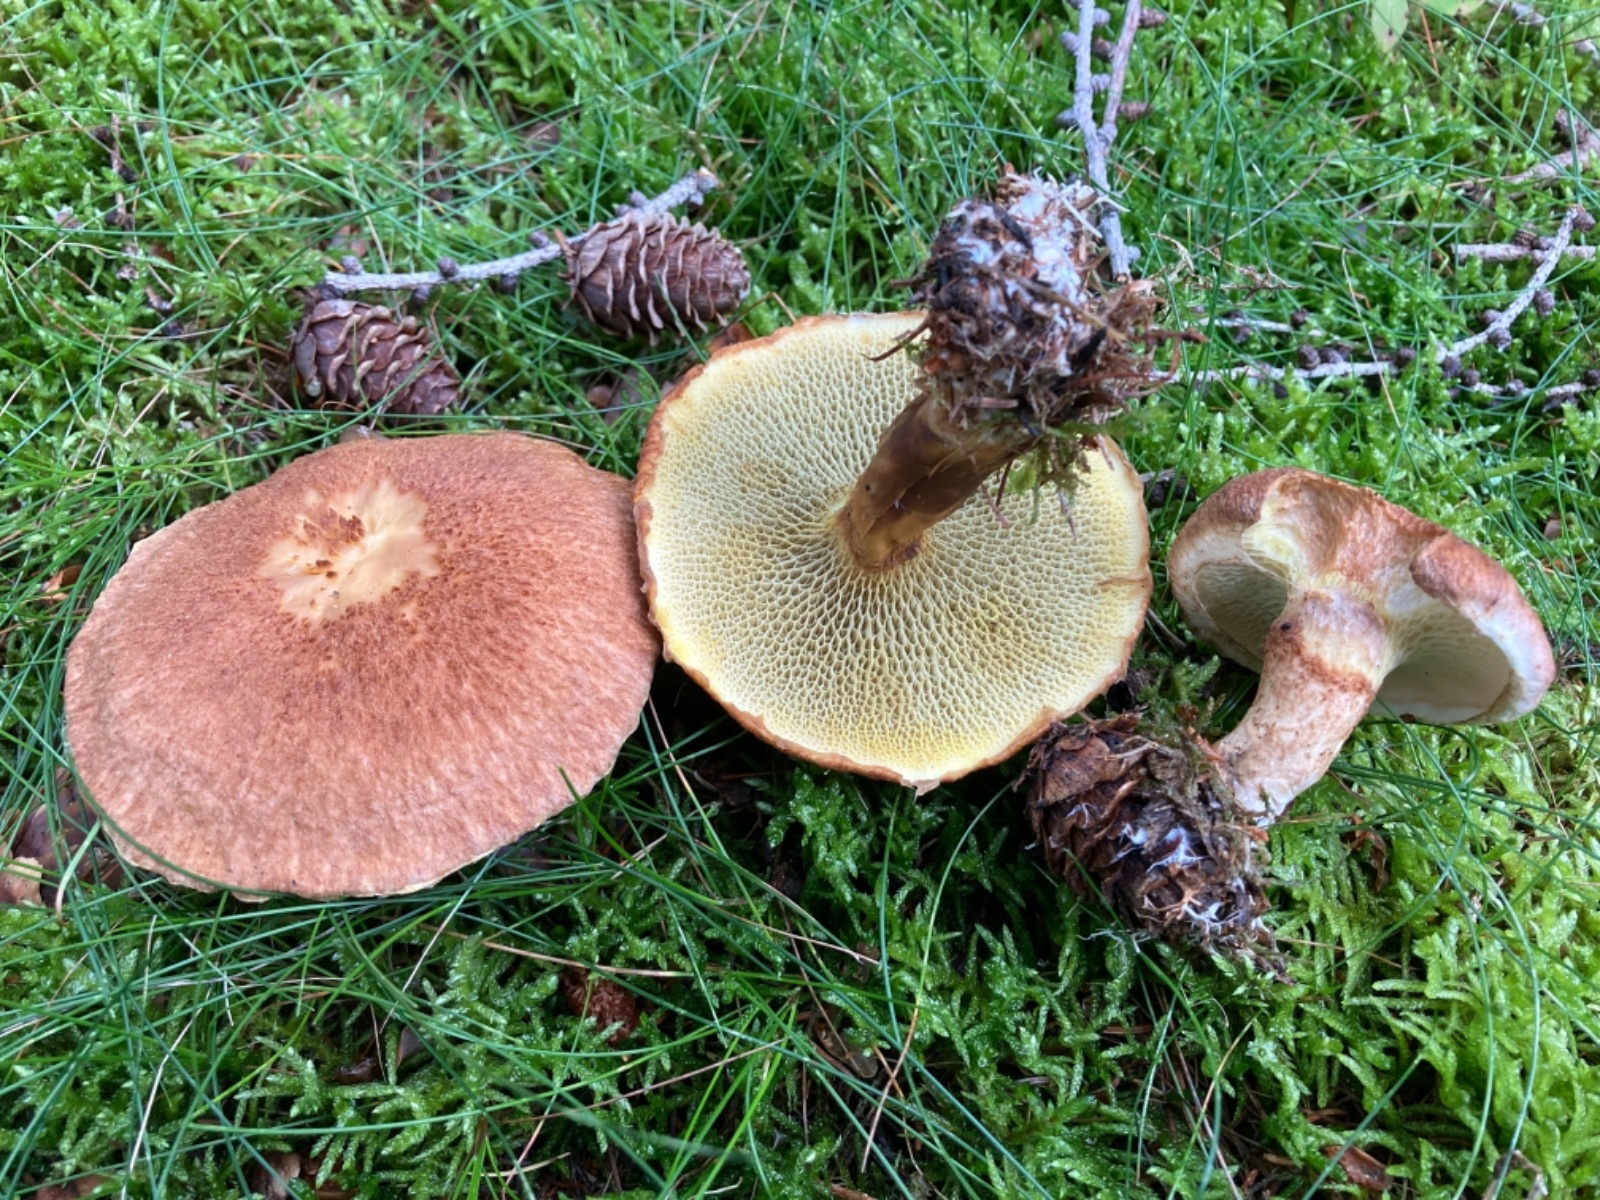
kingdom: Fungi
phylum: Basidiomycota
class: Agaricomycetes
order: Boletales
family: Suillaceae
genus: Suillus
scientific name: Suillus cavipes
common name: hulstokket slimrørhat
